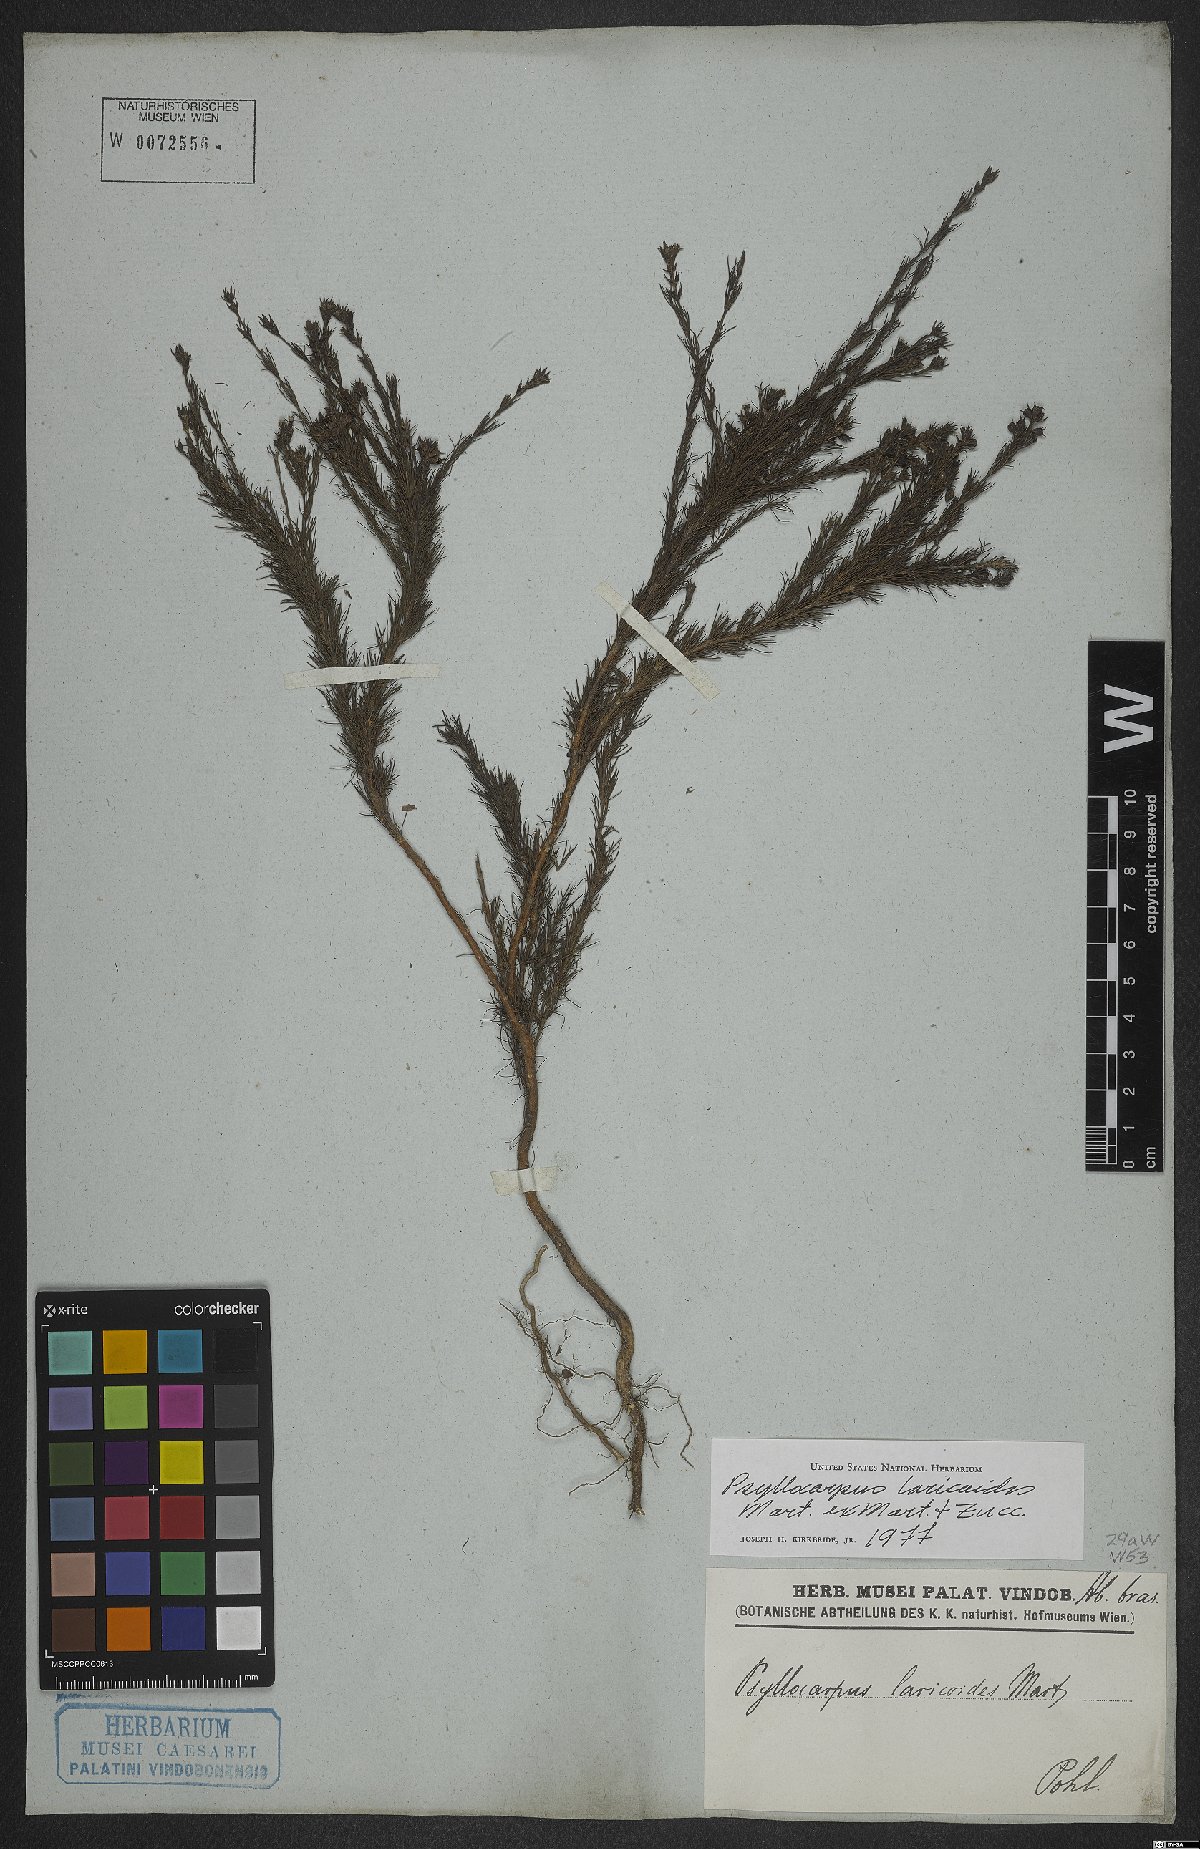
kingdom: Plantae
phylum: Tracheophyta
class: Magnoliopsida
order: Gentianales
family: Rubiaceae
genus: Psyllocarpus
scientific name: Psyllocarpus laricoides
